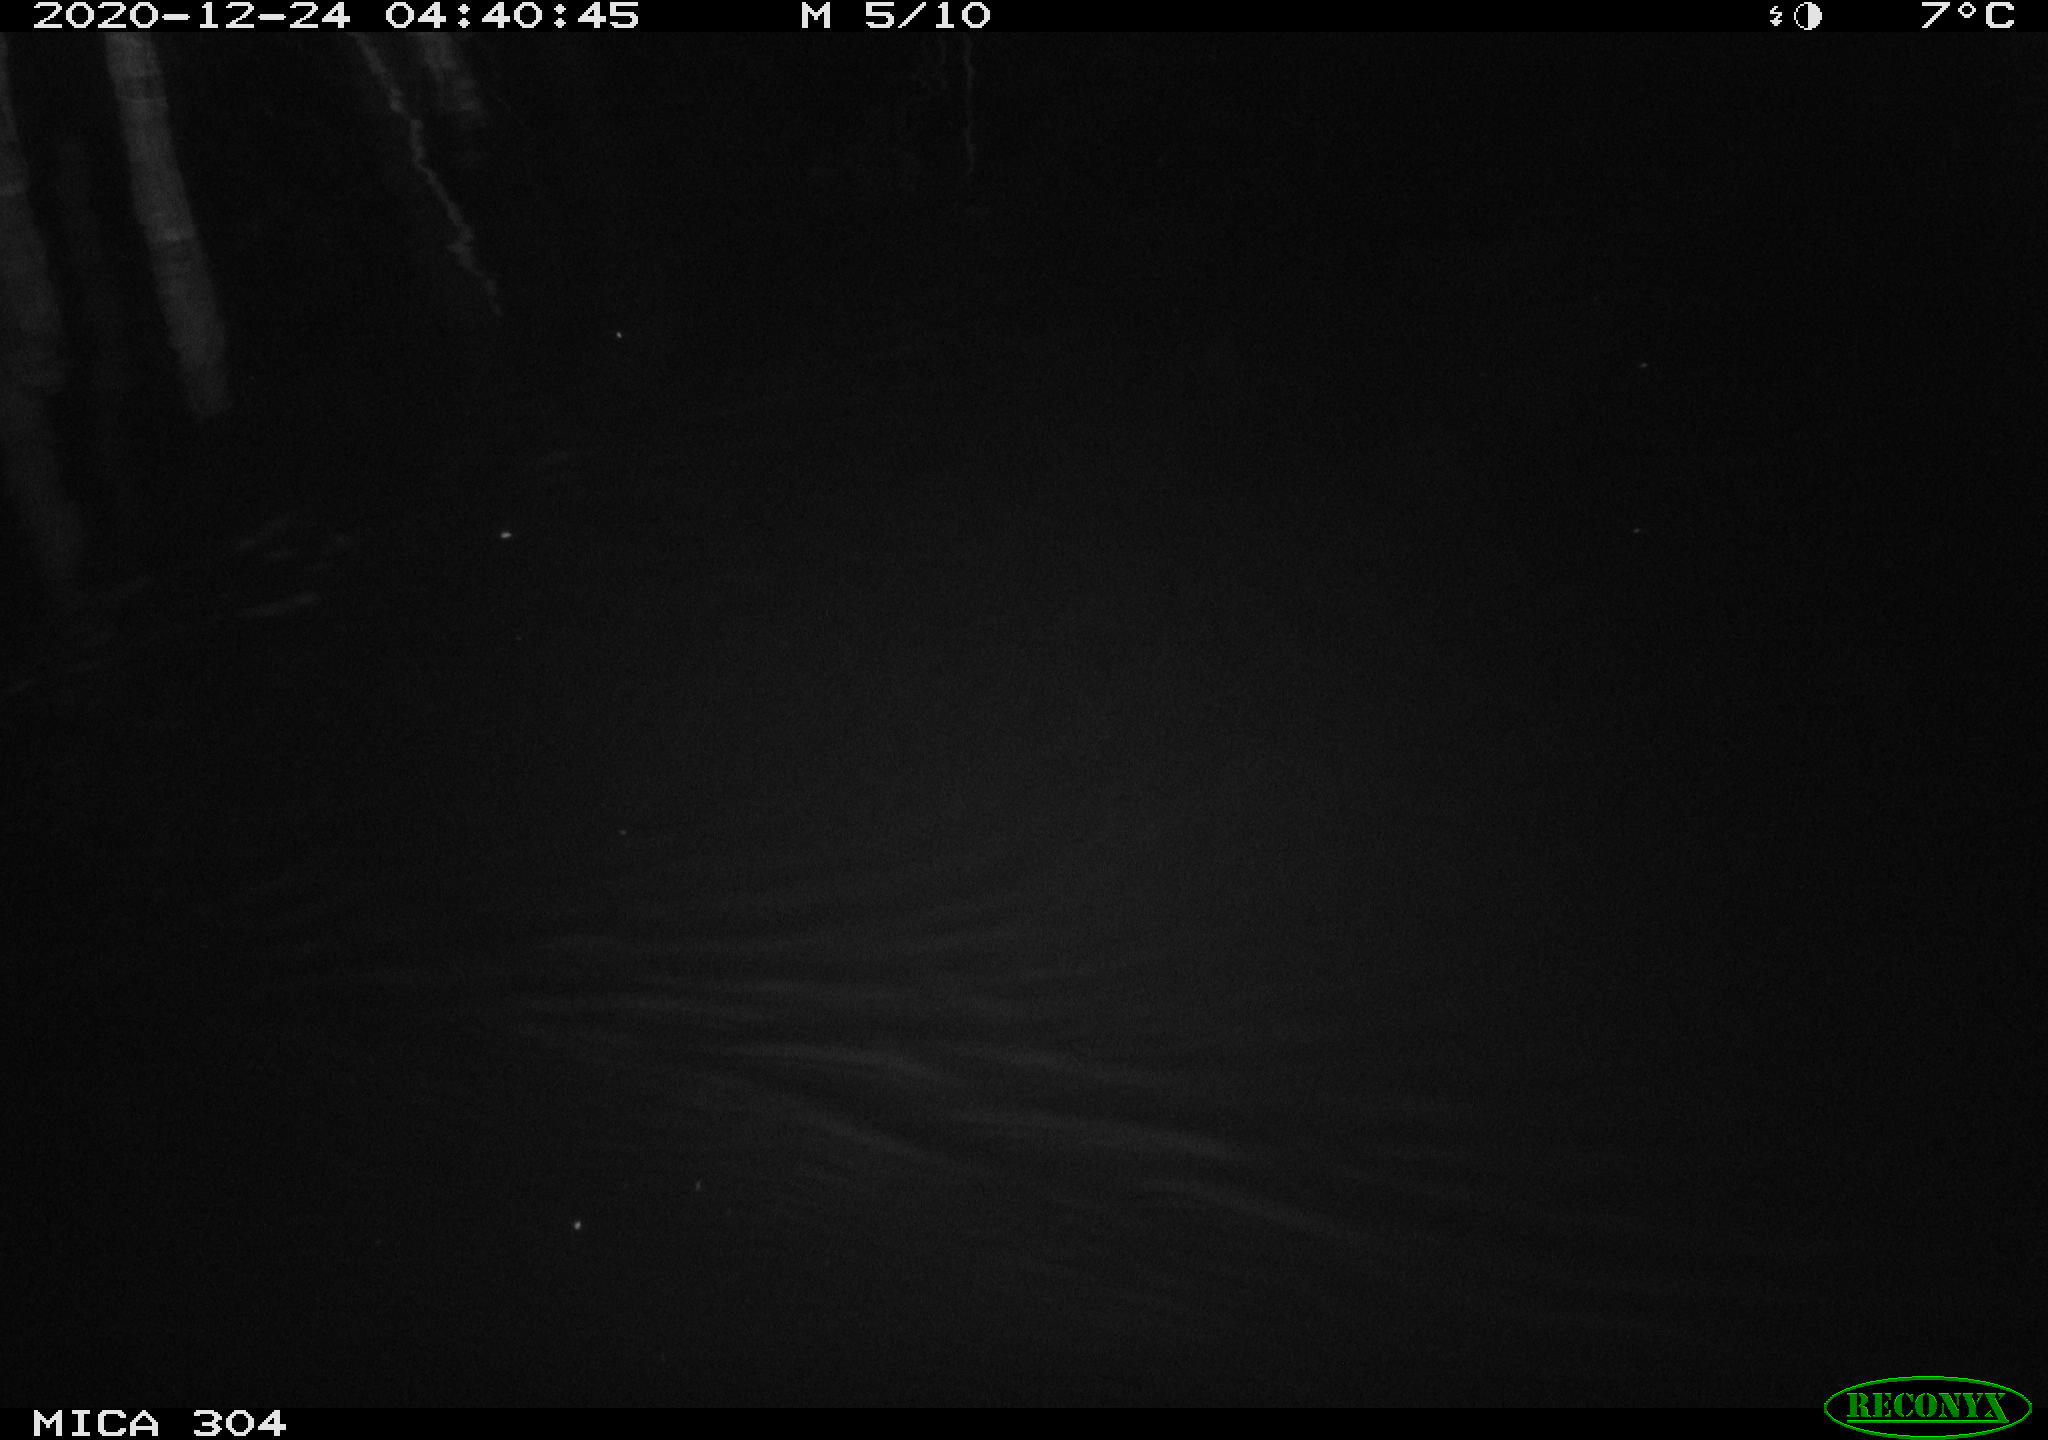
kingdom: Animalia
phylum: Chordata
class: Mammalia
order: Rodentia
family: Muridae
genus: Rattus
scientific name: Rattus norvegicus
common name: Brown rat
